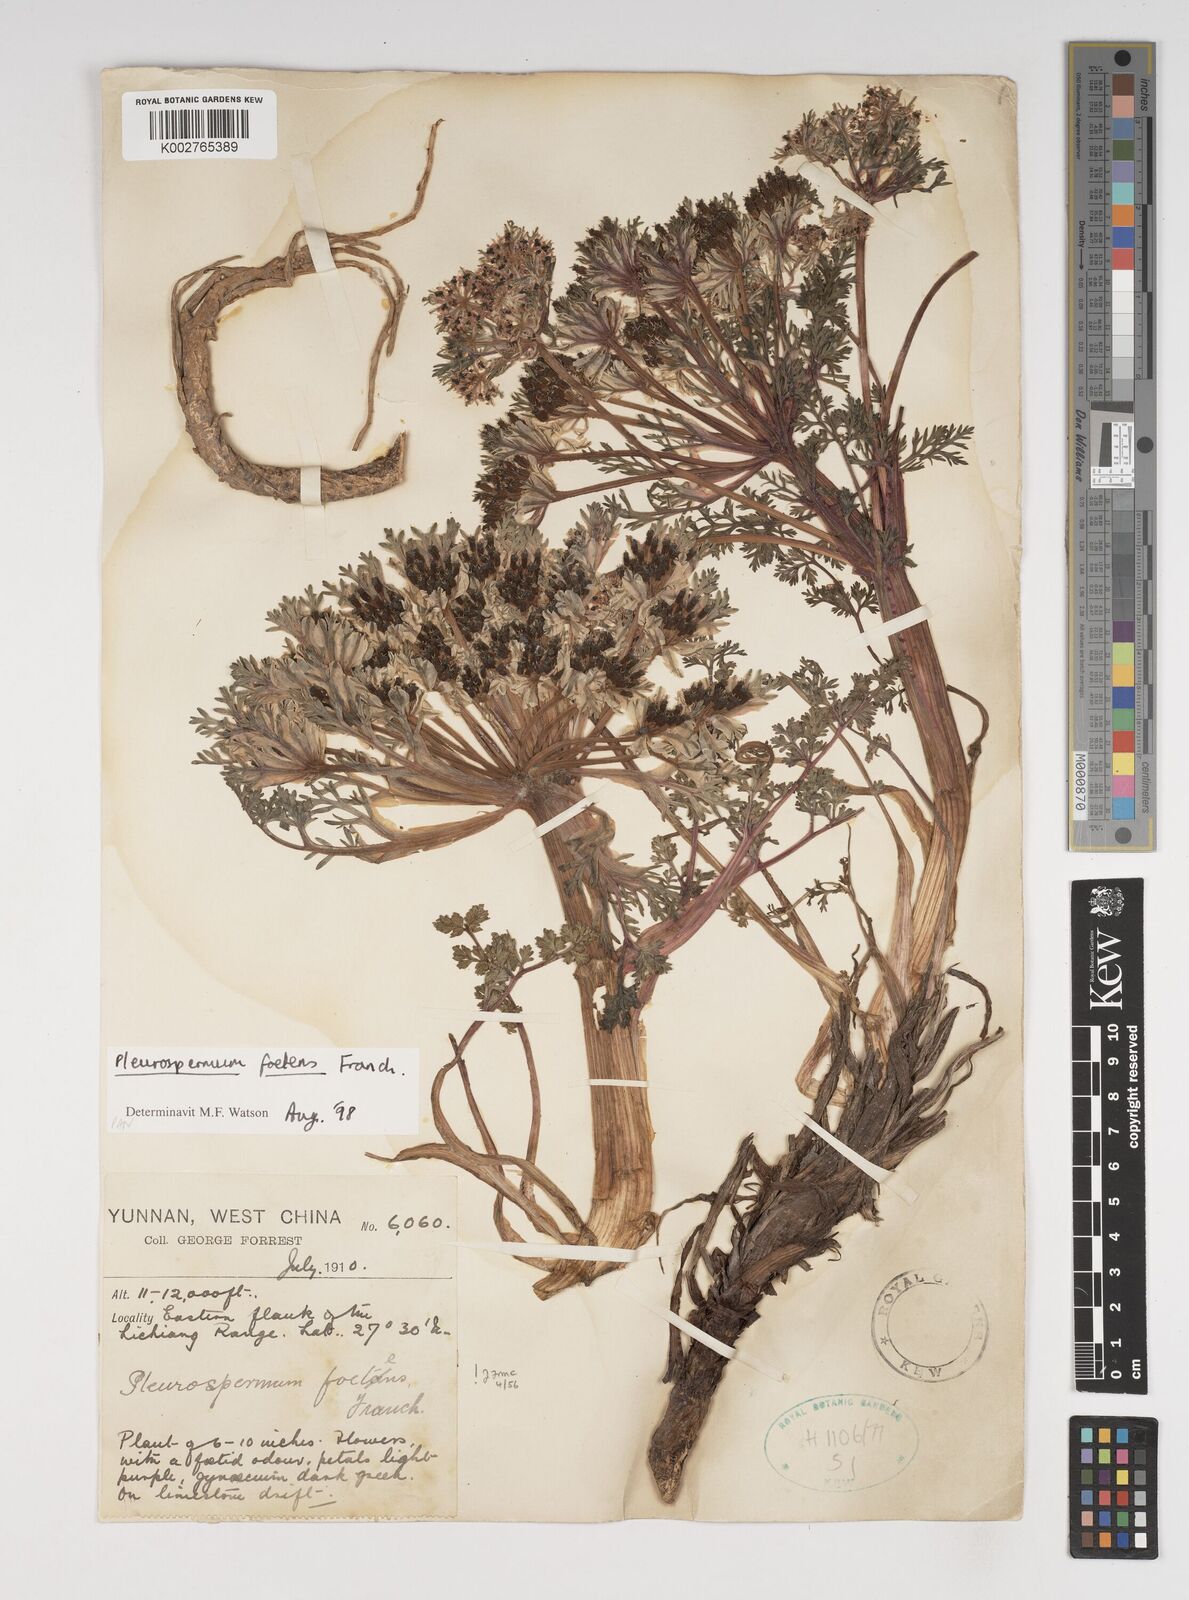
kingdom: Plantae
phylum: Tracheophyta
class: Magnoliopsida
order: Apiales
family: Apiaceae
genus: Hymenidium
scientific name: Hymenidium foetens
